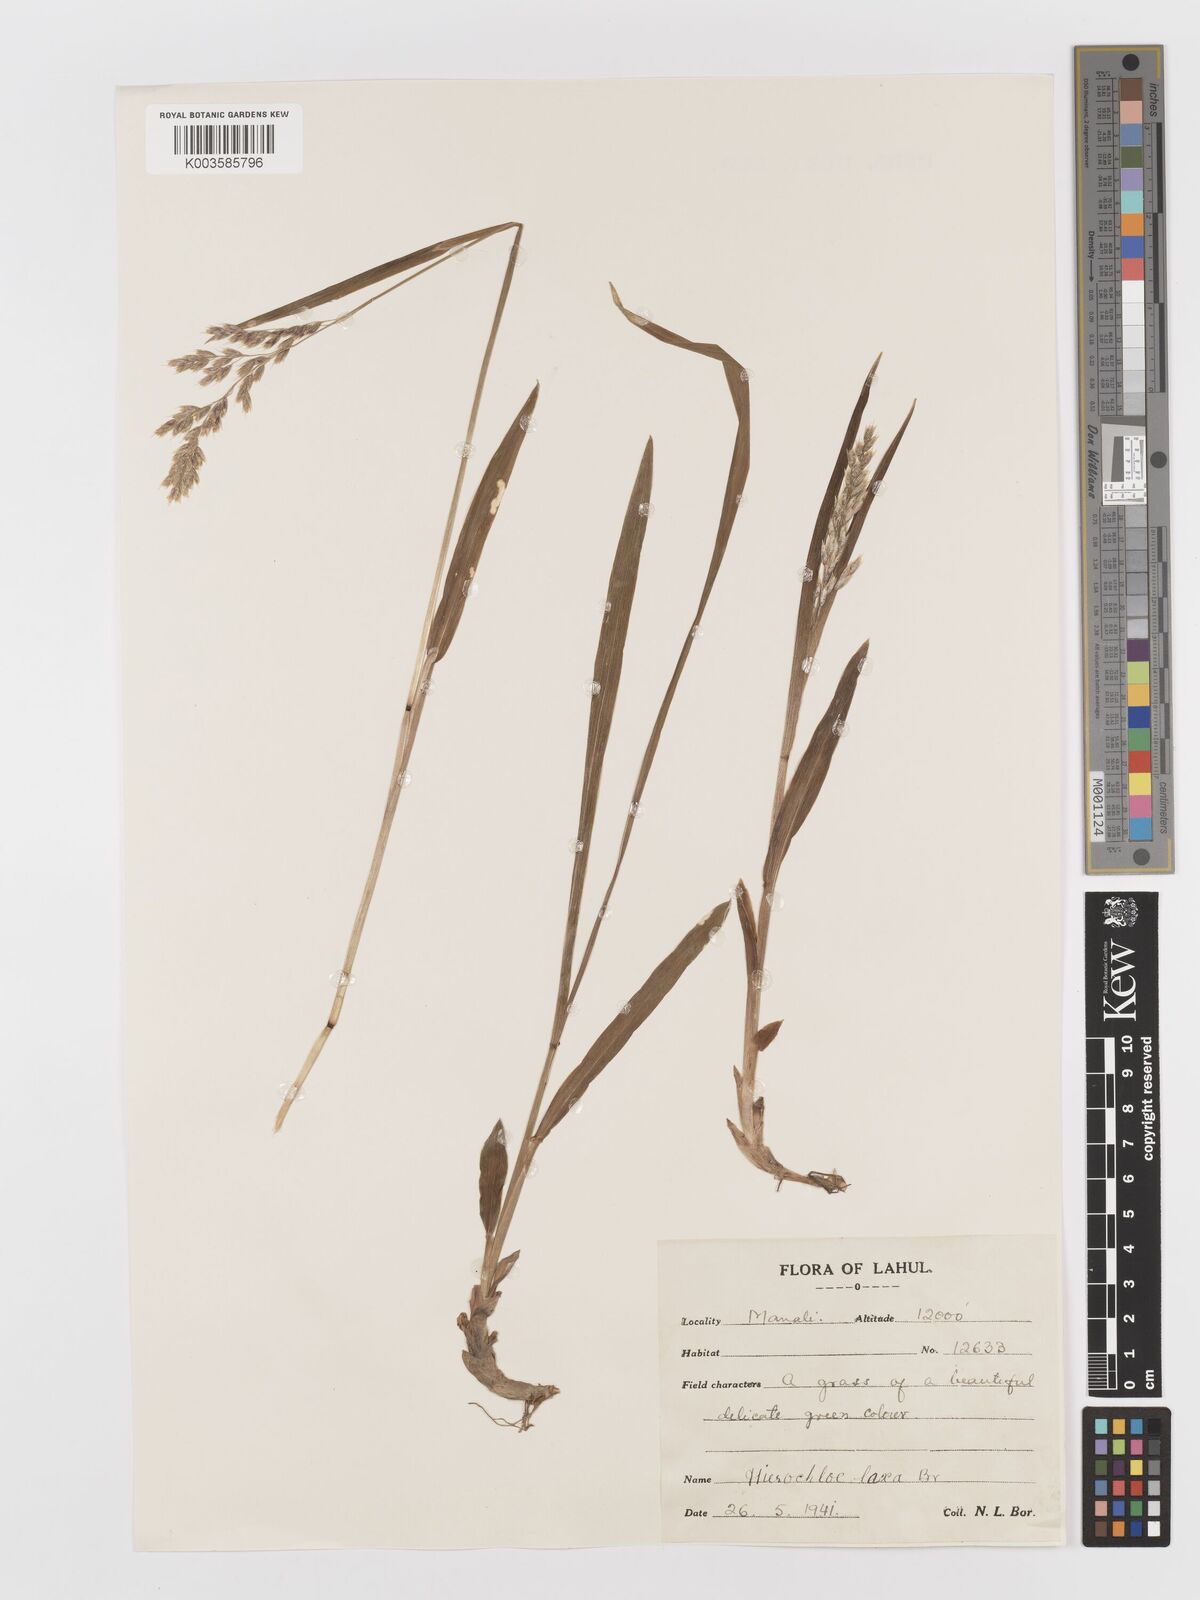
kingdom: Plantae
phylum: Tracheophyta
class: Liliopsida
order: Poales
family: Poaceae
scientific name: Poaceae
